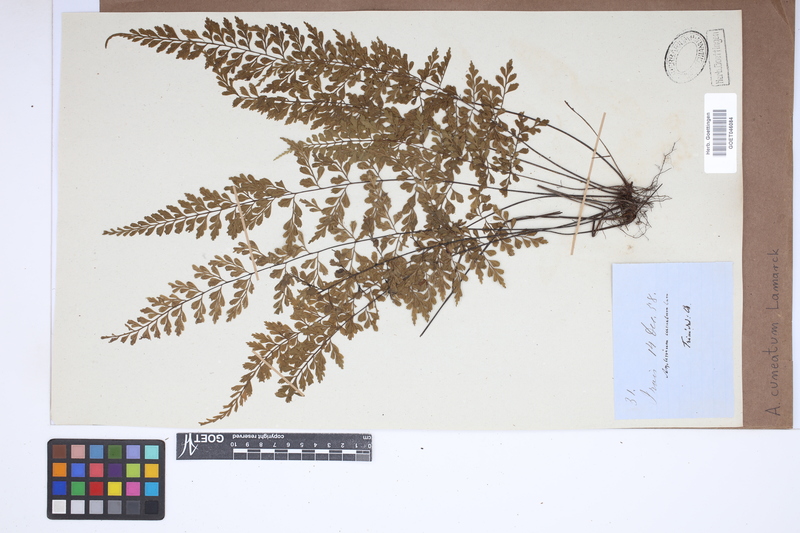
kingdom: Plantae
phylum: Tracheophyta
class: Polypodiopsida
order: Polypodiales
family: Aspleniaceae
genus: Asplenium
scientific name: Asplenium cuneatum
